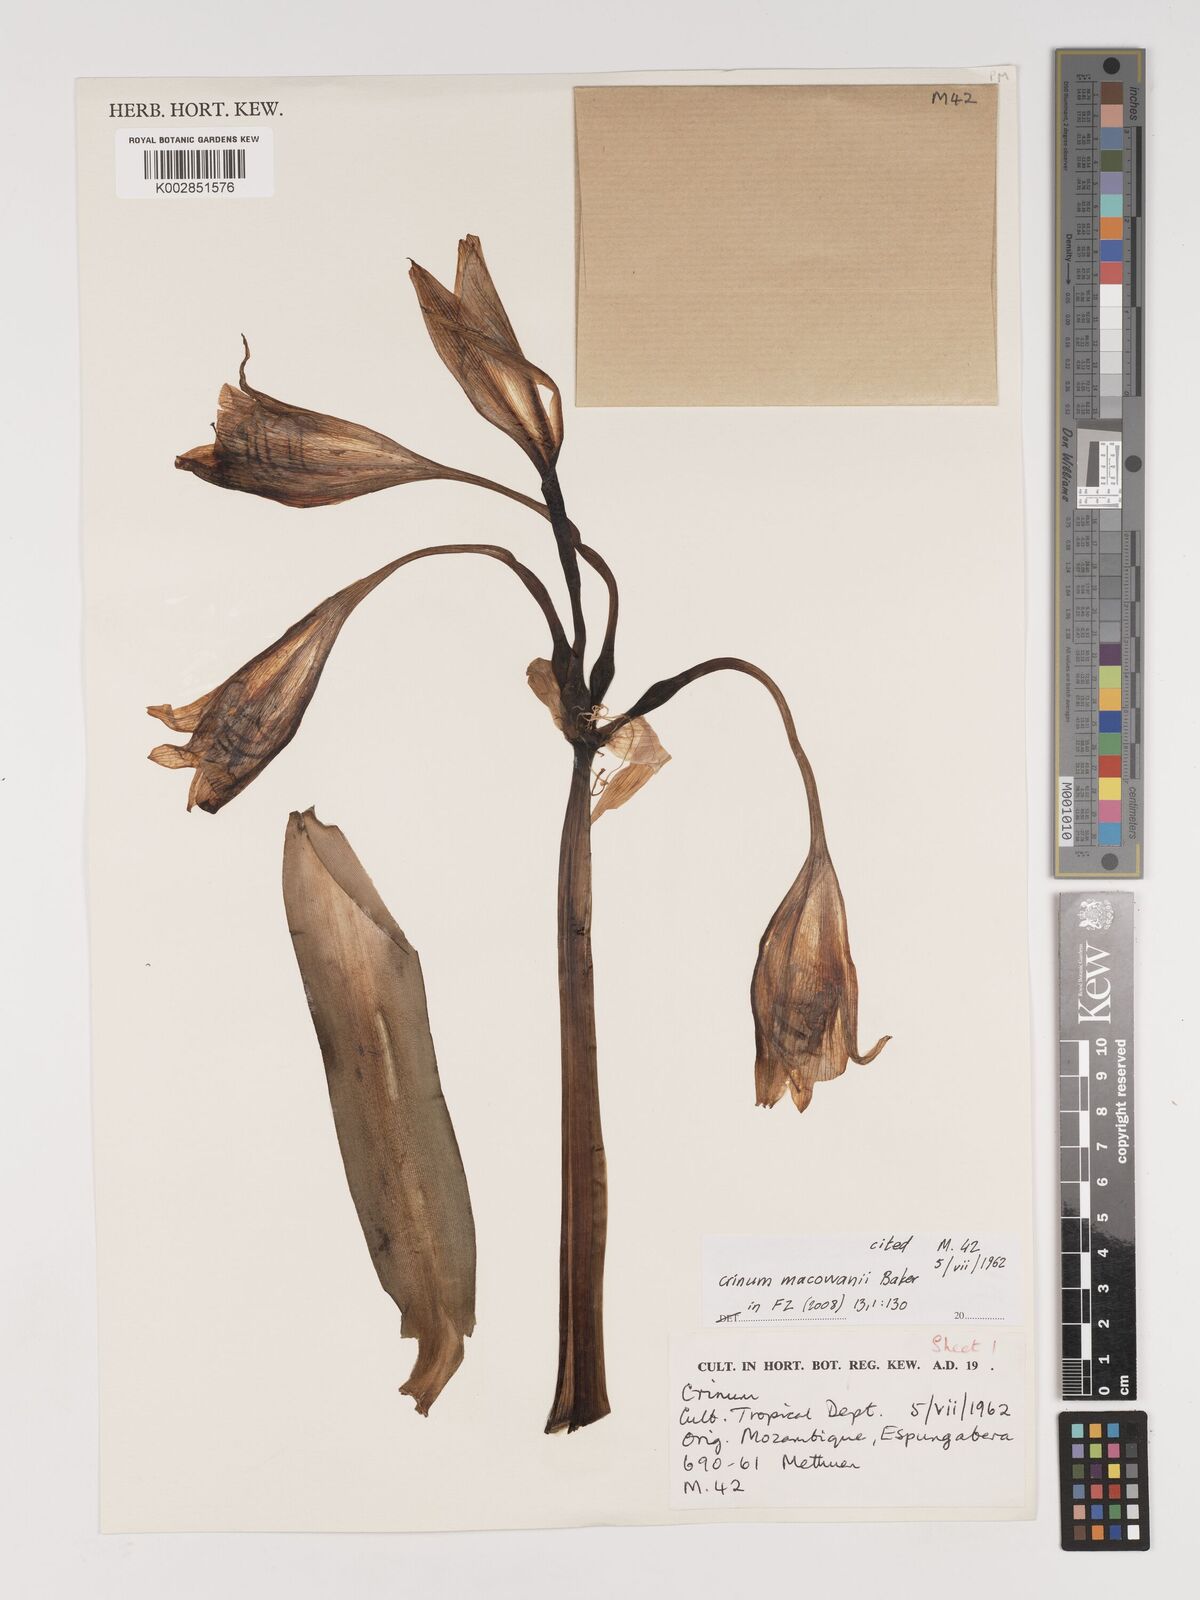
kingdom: Plantae
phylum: Tracheophyta
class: Liliopsida
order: Asparagales
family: Amaryllidaceae
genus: Crinum
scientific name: Crinum macowanii
